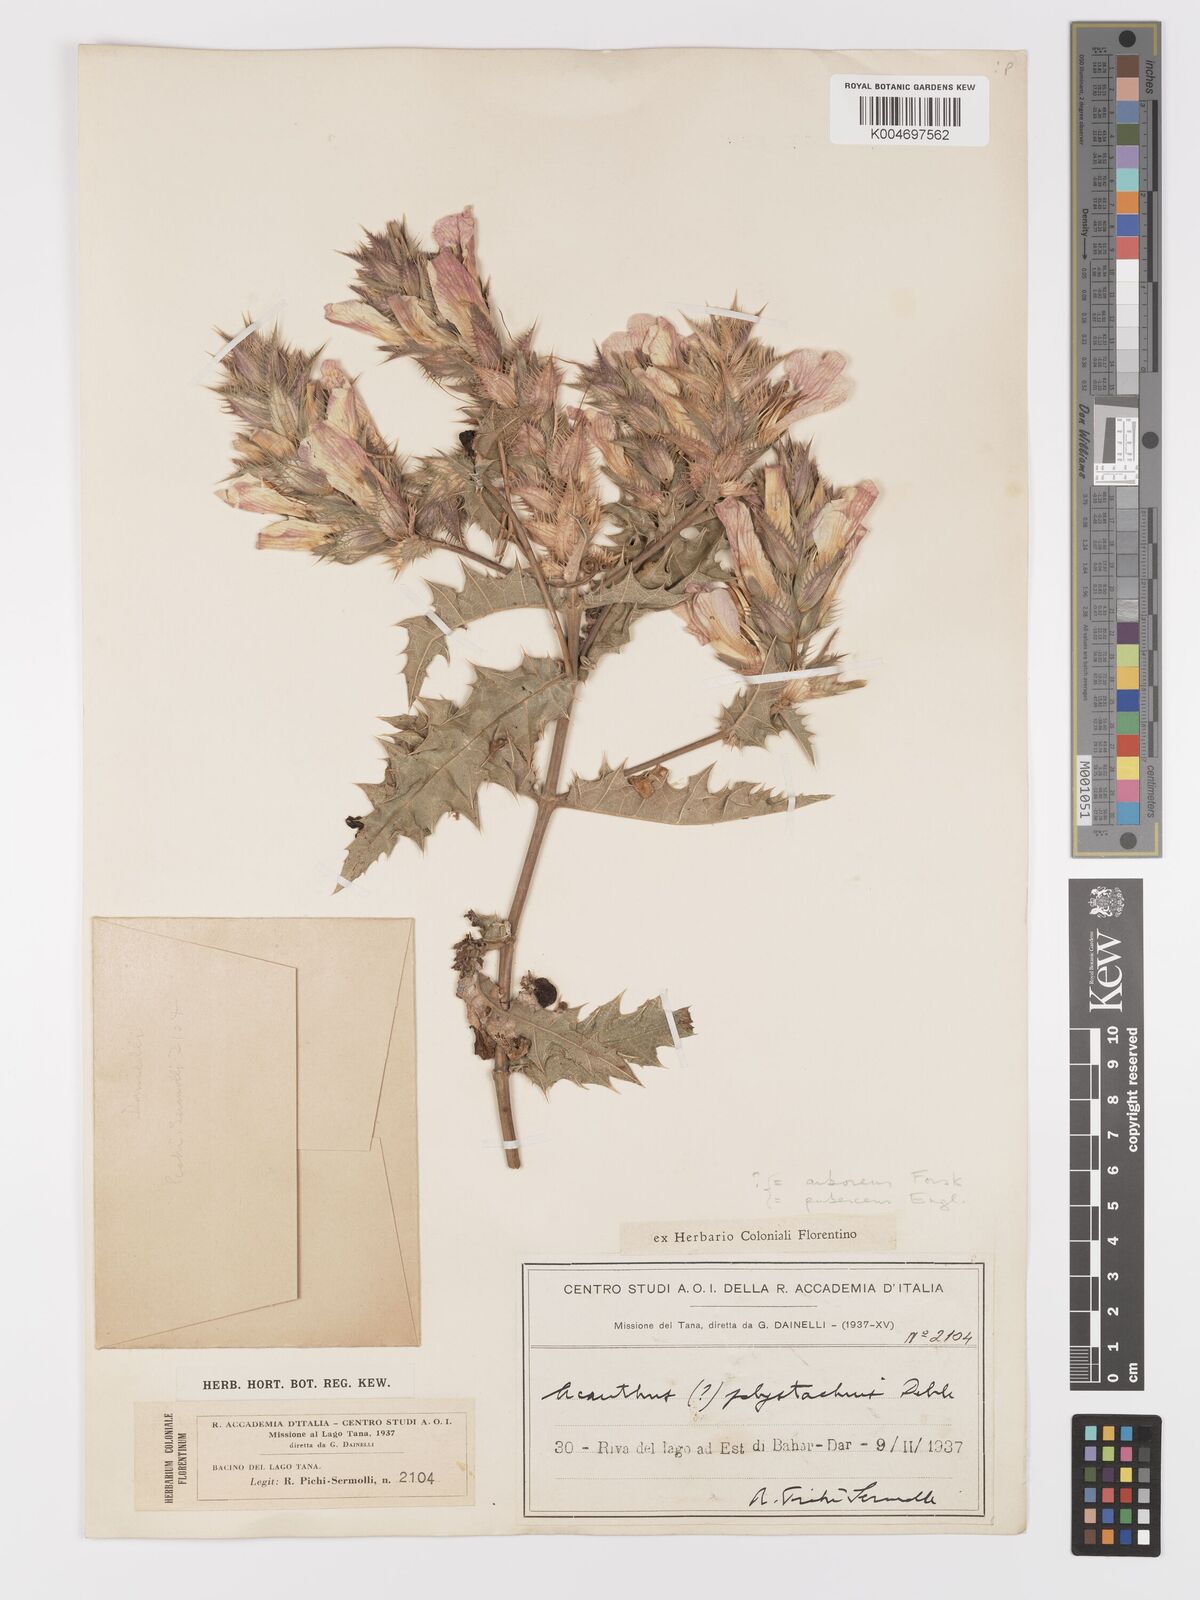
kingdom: Plantae
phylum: Tracheophyta
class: Magnoliopsida
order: Lamiales
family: Acanthaceae
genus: Acanthus
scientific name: Acanthus polystachyus
